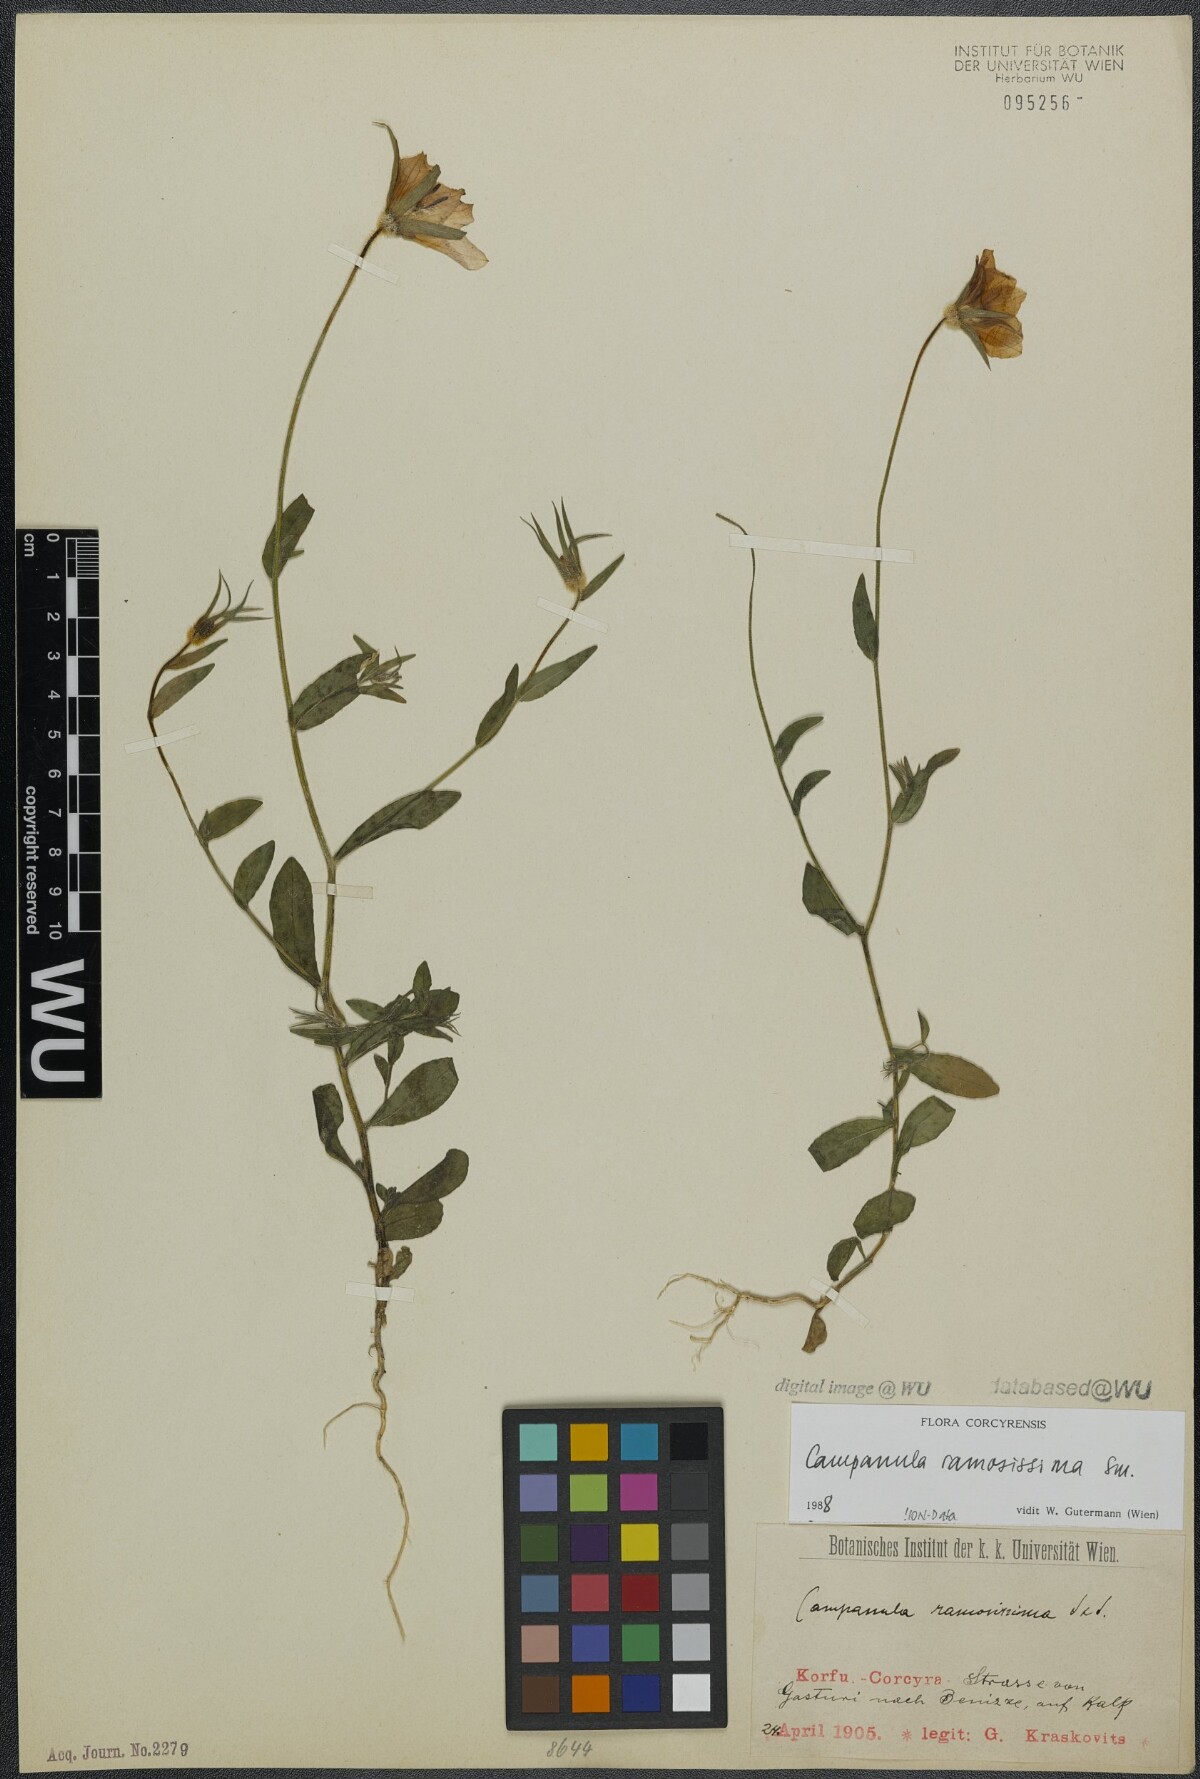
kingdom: Plantae
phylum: Tracheophyta
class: Magnoliopsida
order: Asterales
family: Campanulaceae
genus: Campanula
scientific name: Campanula ramosissima
